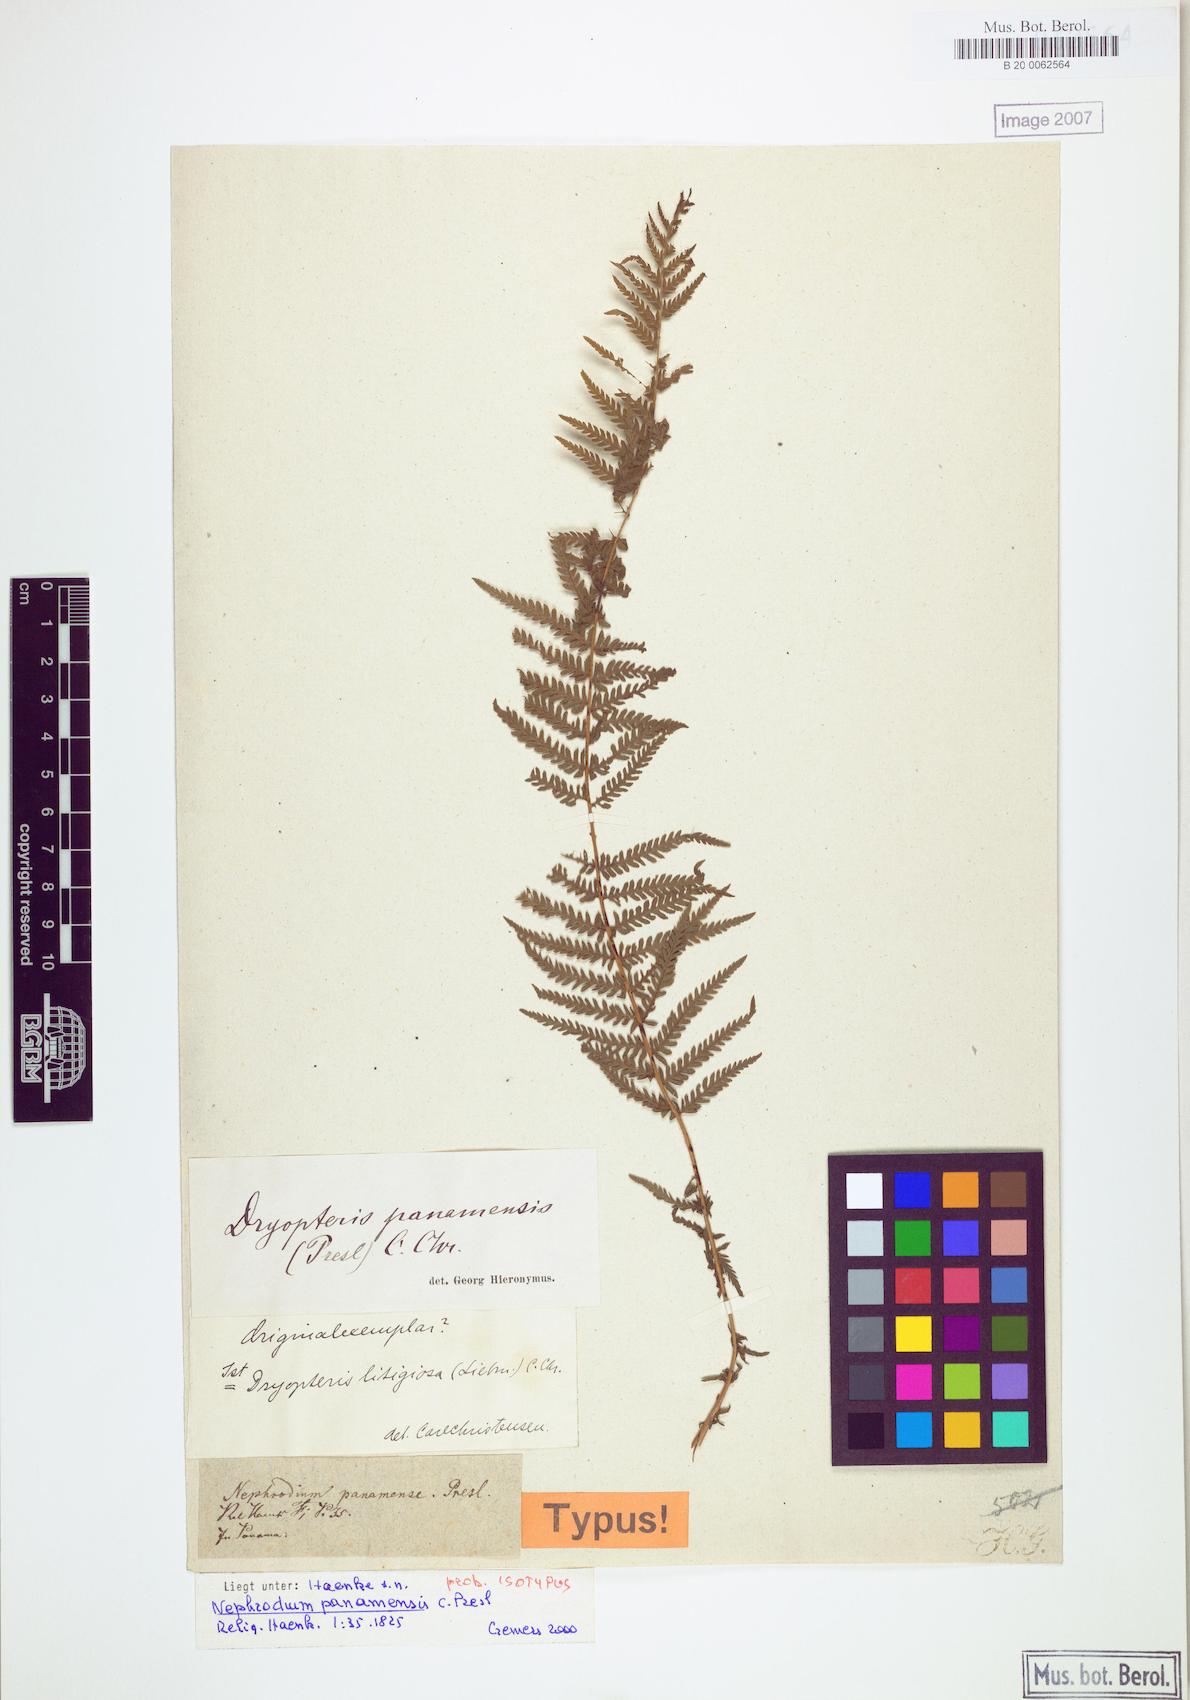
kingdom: Plantae
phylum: Tracheophyta
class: Polypodiopsida
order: Polypodiales
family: Thelypteridaceae
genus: Amauropelta
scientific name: Amauropelta resinifera
